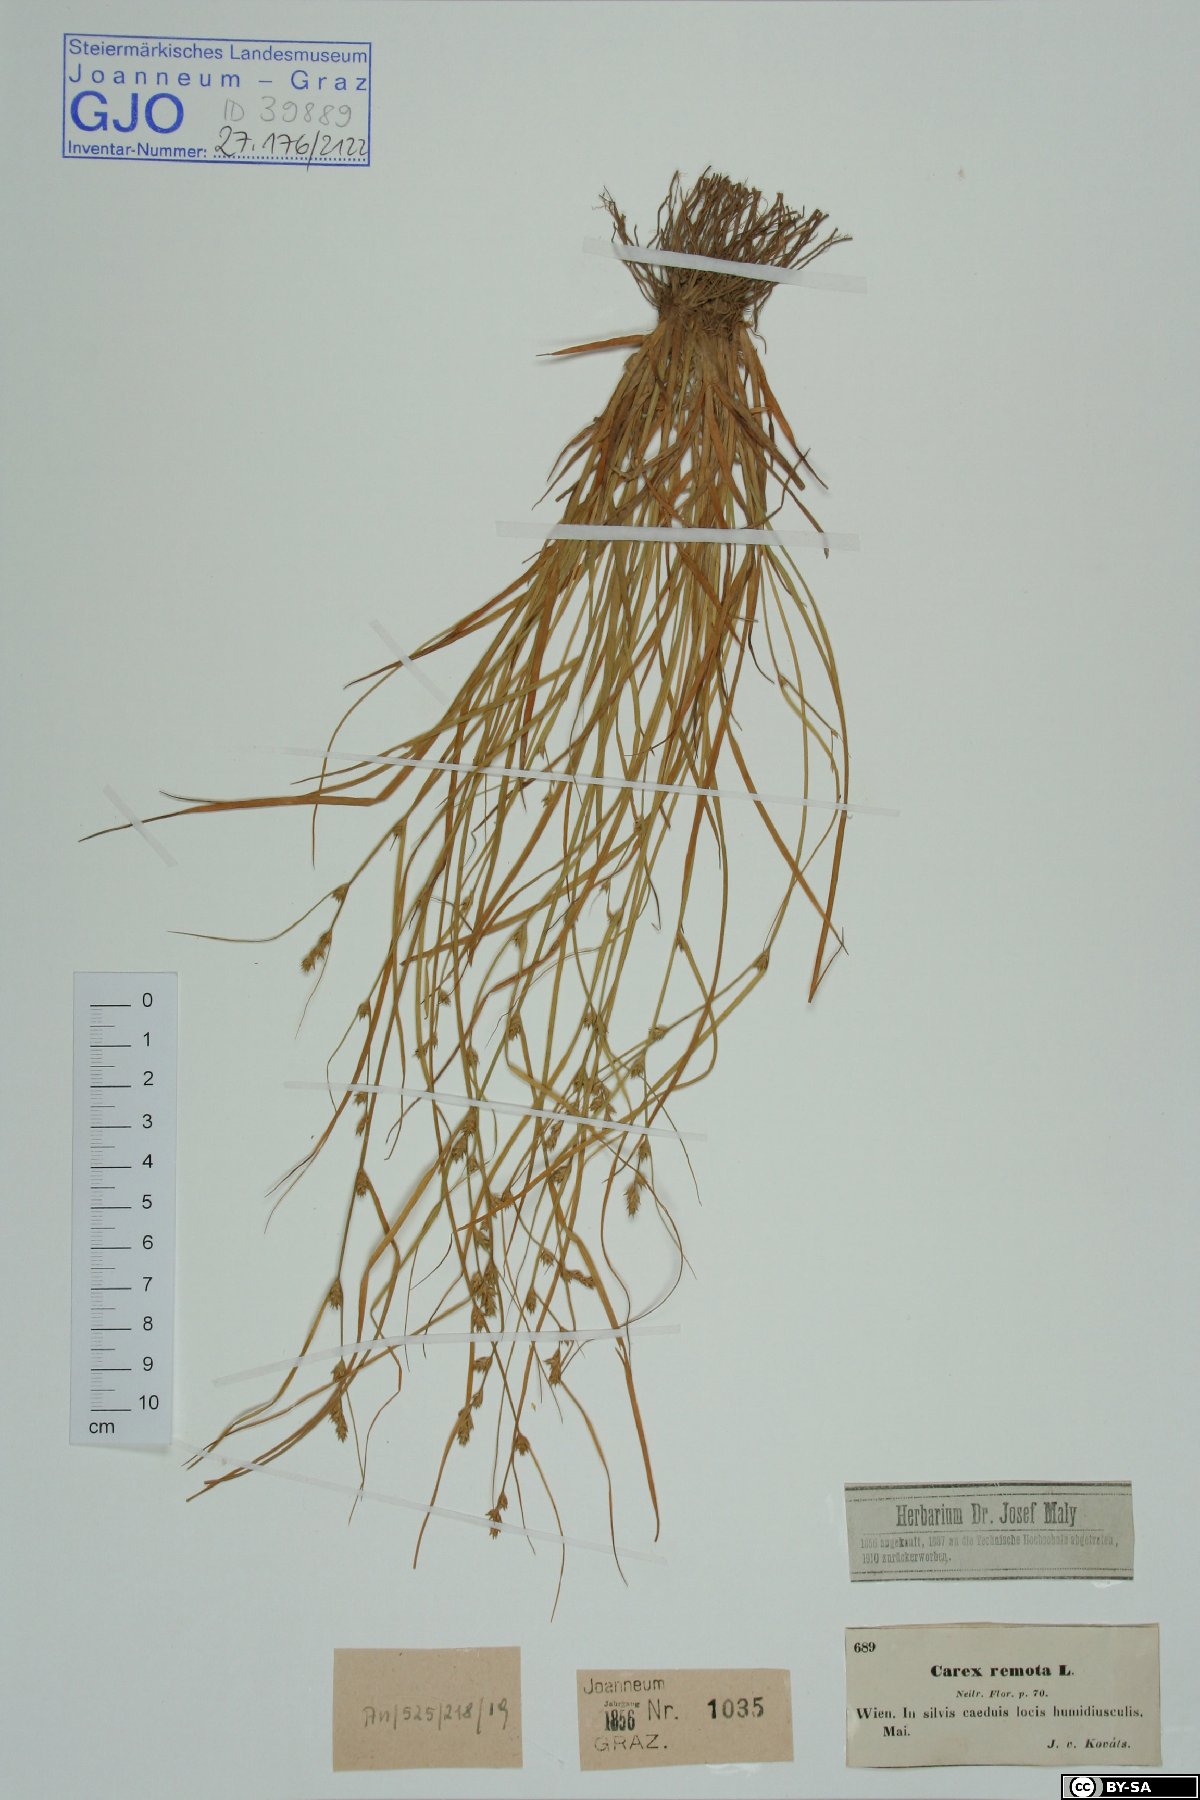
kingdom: Plantae
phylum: Tracheophyta
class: Liliopsida
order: Poales
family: Cyperaceae
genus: Carex
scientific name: Carex remota
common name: Remote sedge
